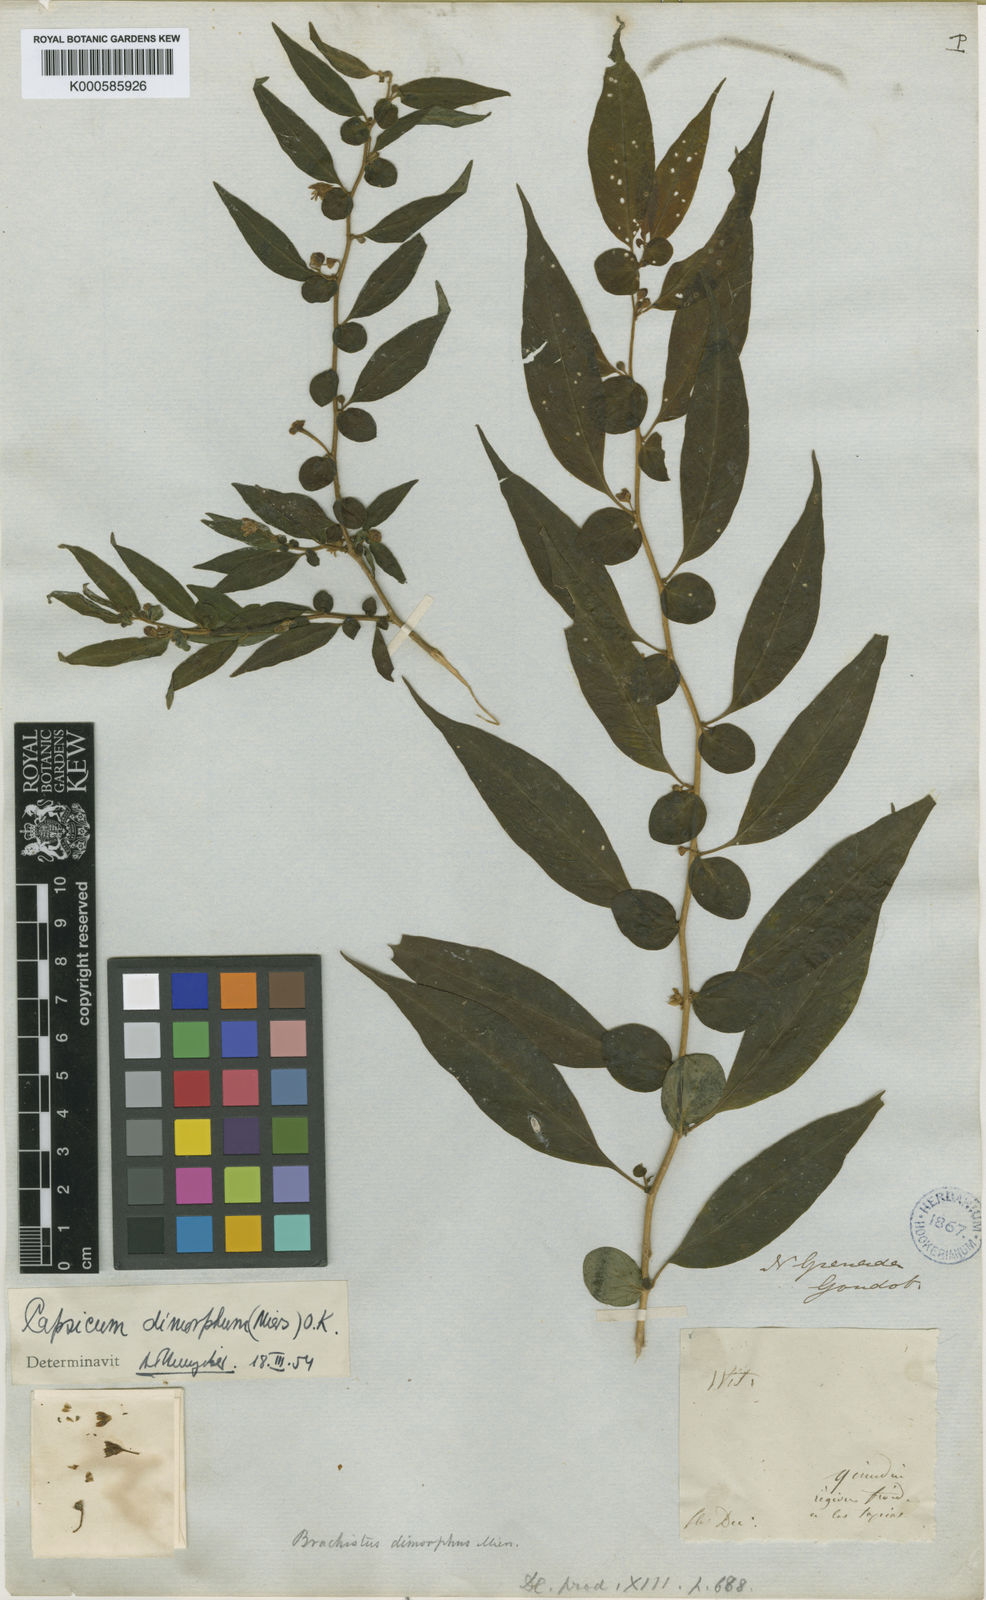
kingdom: Plantae
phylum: Tracheophyta
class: Magnoliopsida
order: Solanales
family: Solanaceae
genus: Capsicum
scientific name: Capsicum dimorphum
